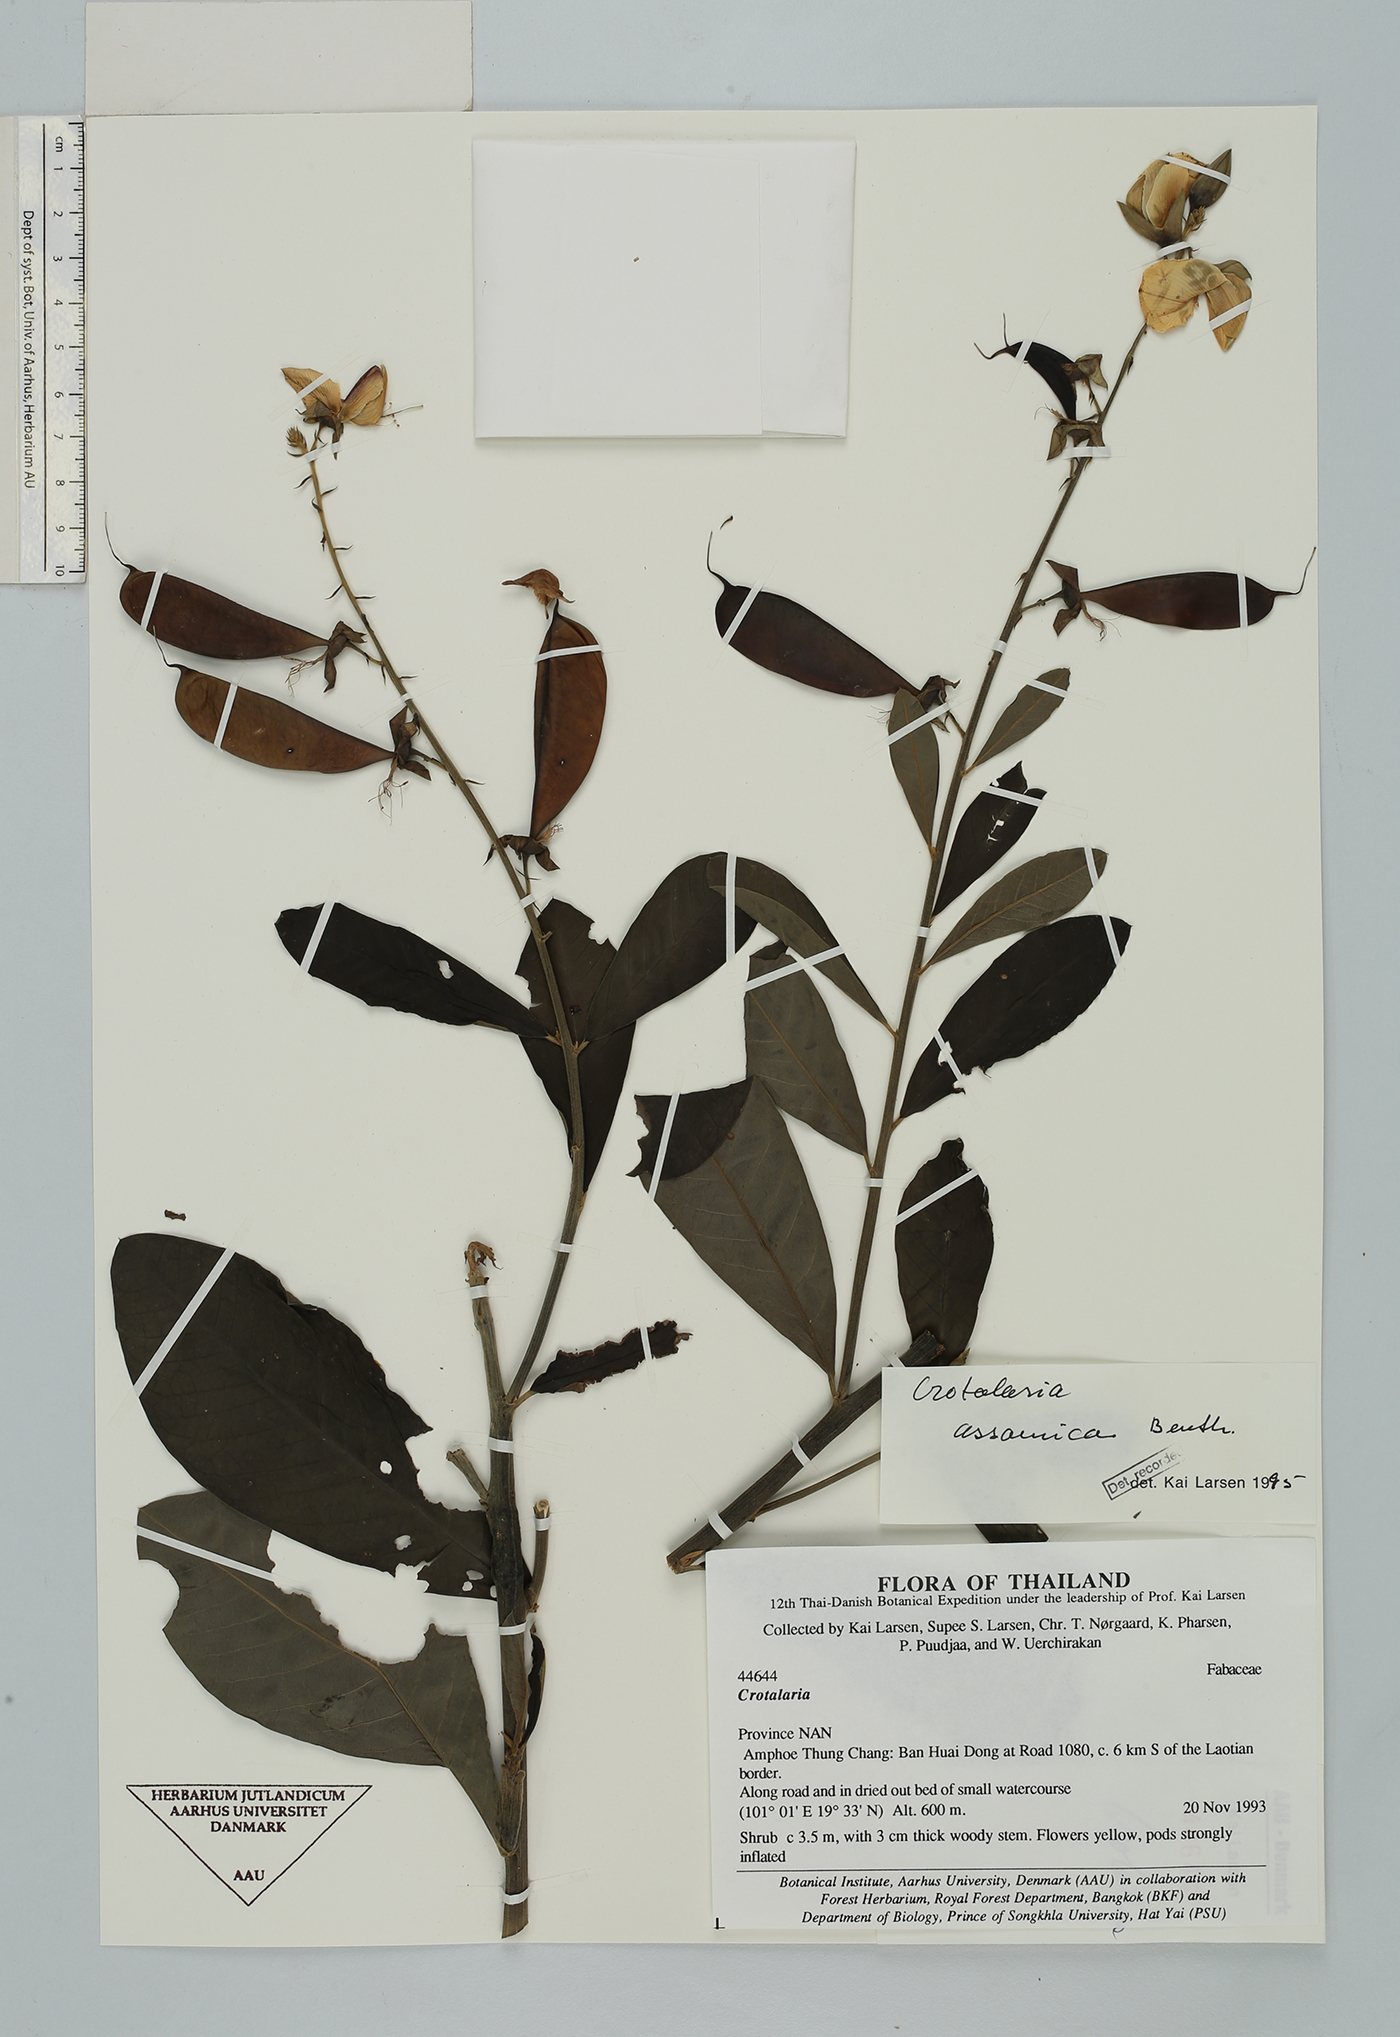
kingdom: Plantae
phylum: Tracheophyta
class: Magnoliopsida
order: Fabales
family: Fabaceae
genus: Crotalaria
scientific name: Crotalaria sericea
